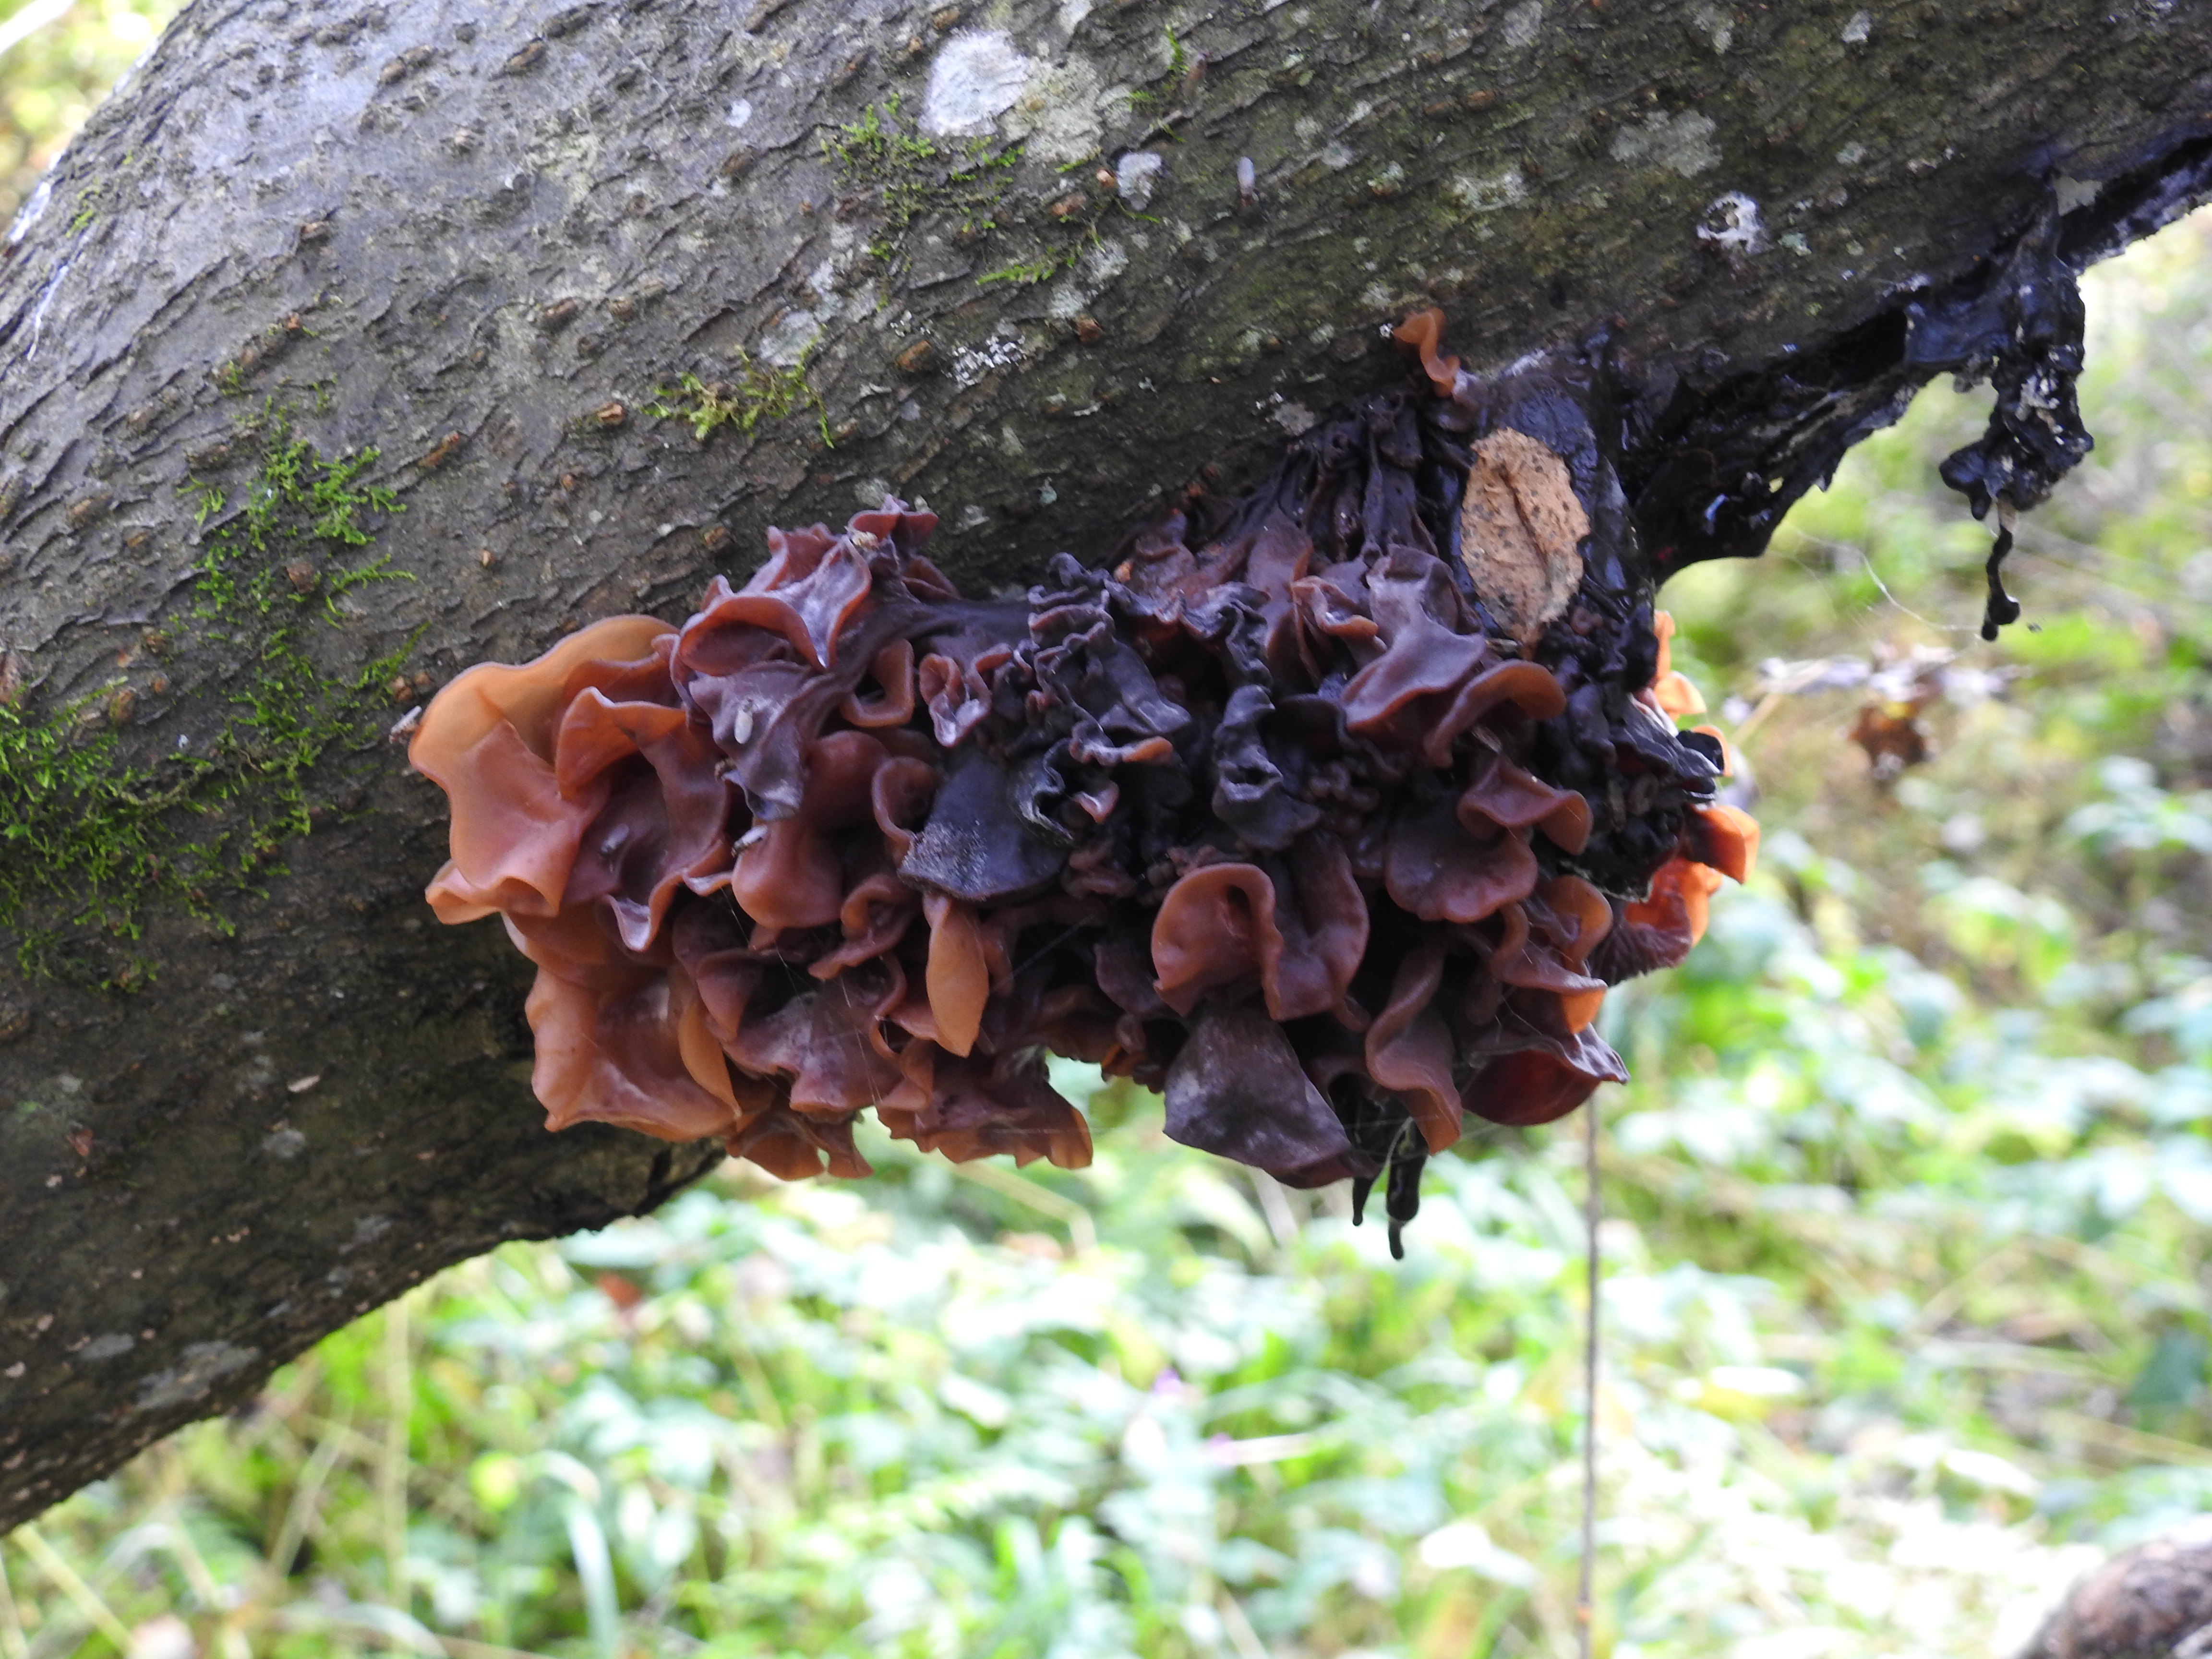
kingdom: Fungi
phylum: Basidiomycota
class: Tremellomycetes
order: Tremellales
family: Tremellaceae
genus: Phaeotremella
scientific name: Phaeotremella foliacea
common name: Leafy brain
